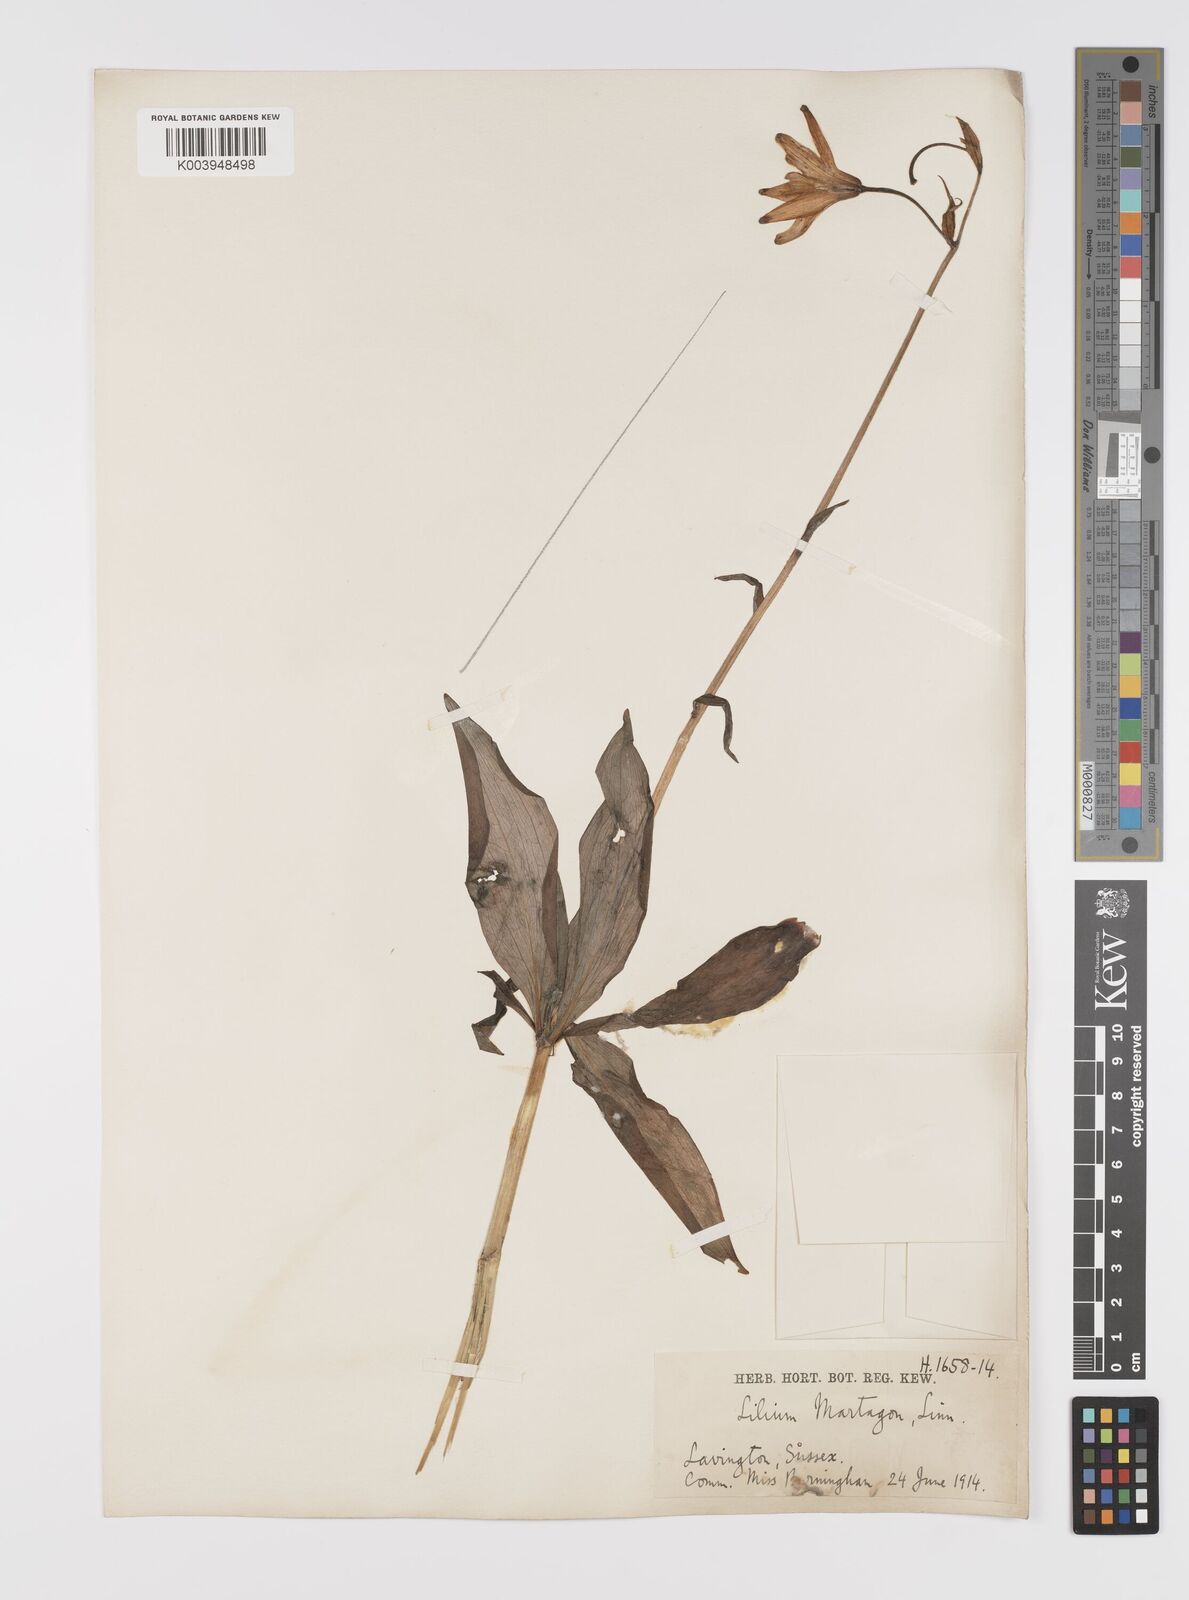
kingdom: Plantae
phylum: Tracheophyta
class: Liliopsida
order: Liliales
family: Liliaceae
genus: Lilium
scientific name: Lilium martagon
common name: Martagon lily
